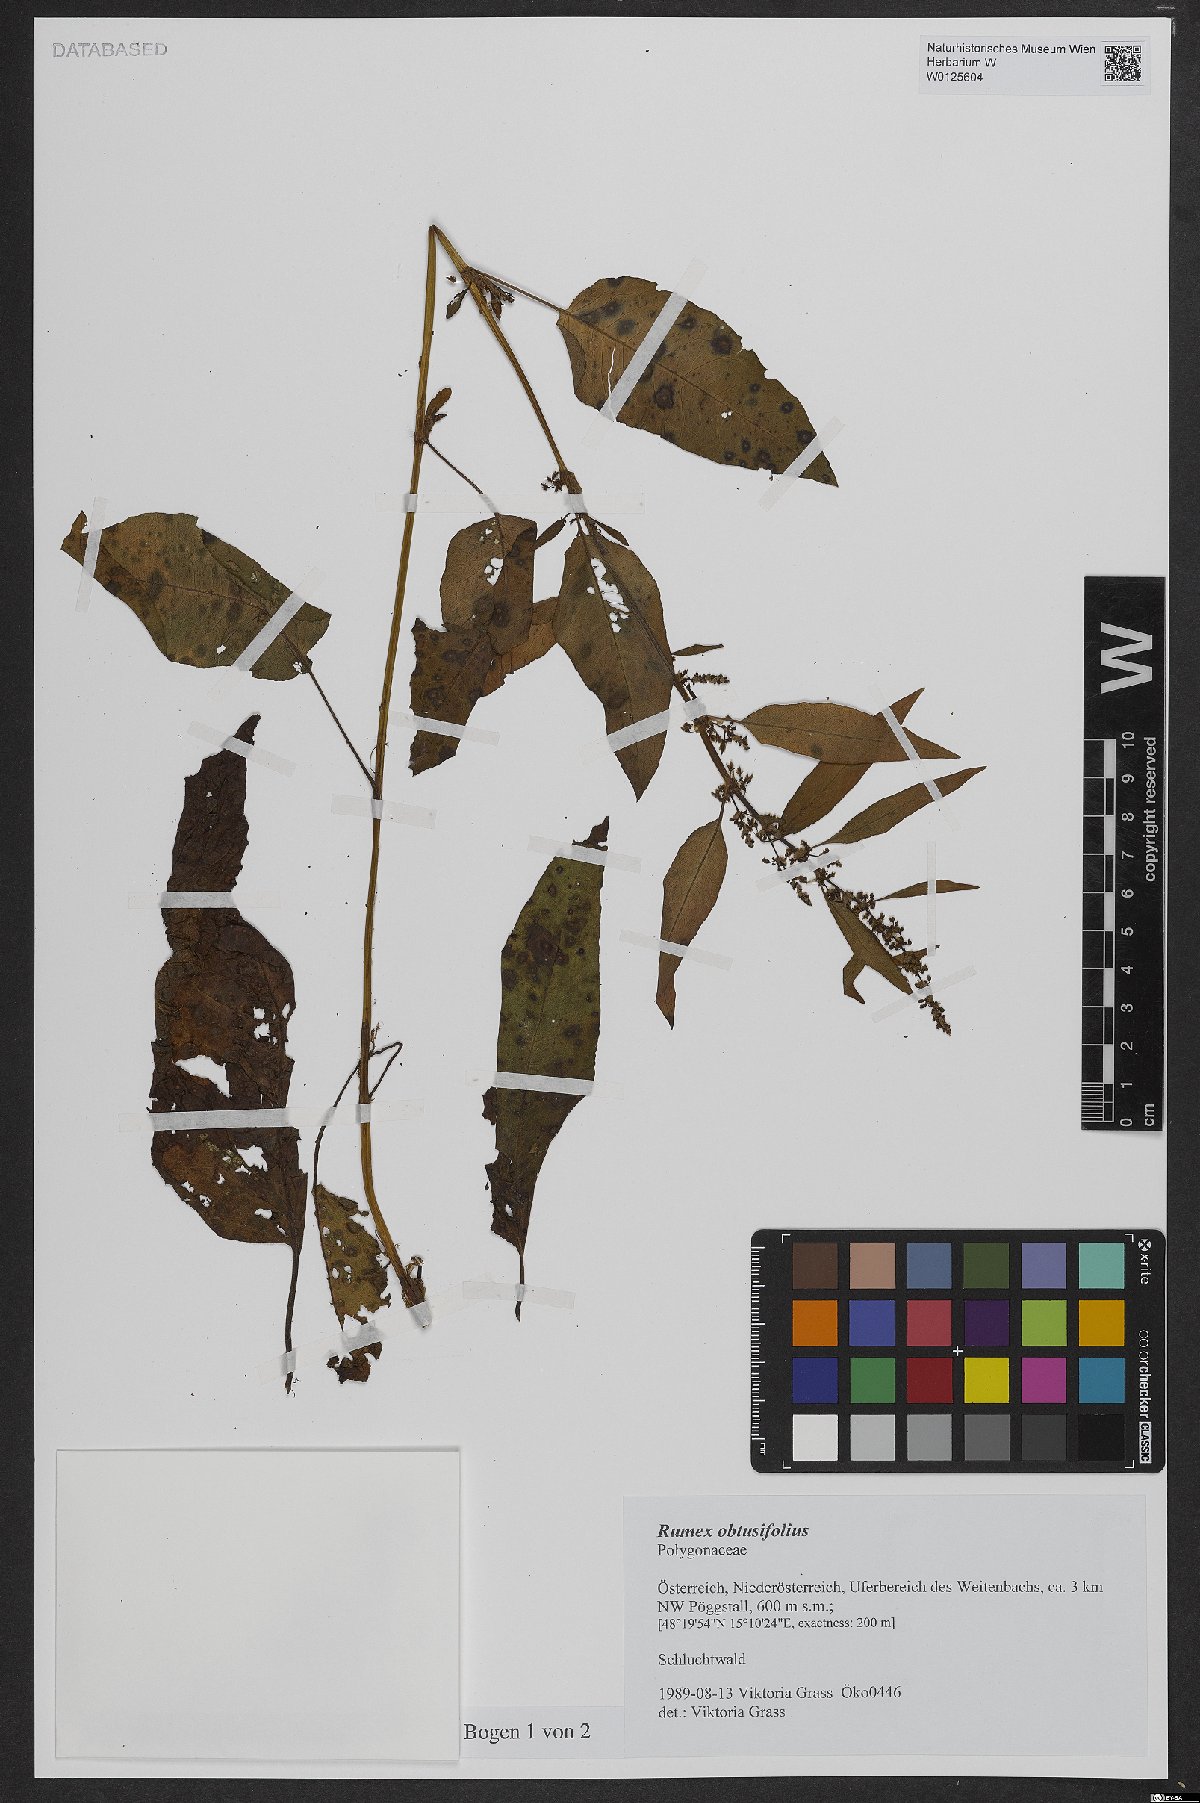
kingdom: Plantae
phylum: Tracheophyta
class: Magnoliopsida
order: Caryophyllales
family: Polygonaceae
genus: Rumex
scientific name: Rumex obtusifolius
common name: Bitter dock
